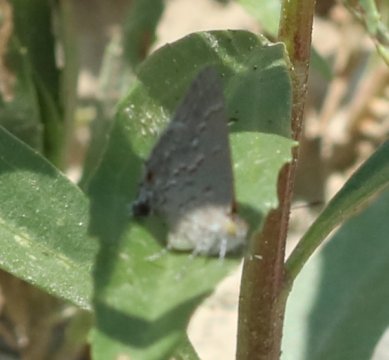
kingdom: Animalia
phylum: Arthropoda
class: Insecta
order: Lepidoptera
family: Lycaenidae
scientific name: Lycaenidae
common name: Gossamerwings
